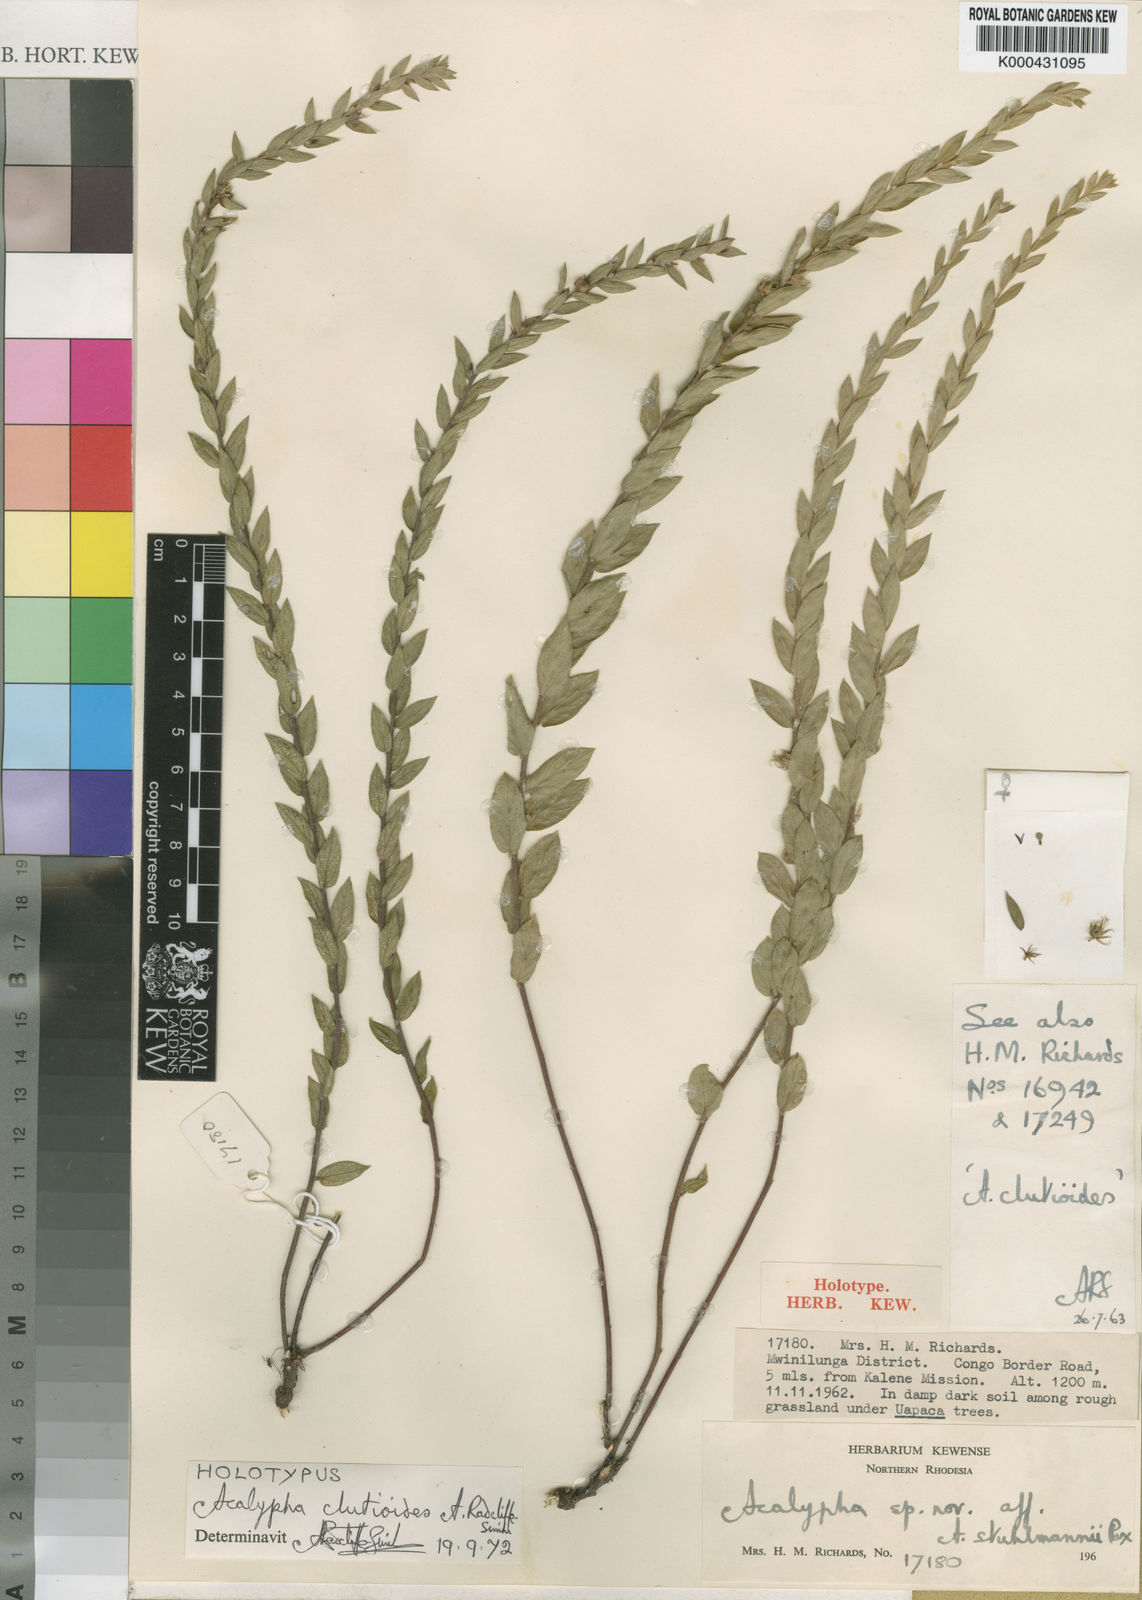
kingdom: Plantae
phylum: Tracheophyta
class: Magnoliopsida
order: Malpighiales
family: Euphorbiaceae
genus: Acalypha
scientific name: Acalypha clutioides
